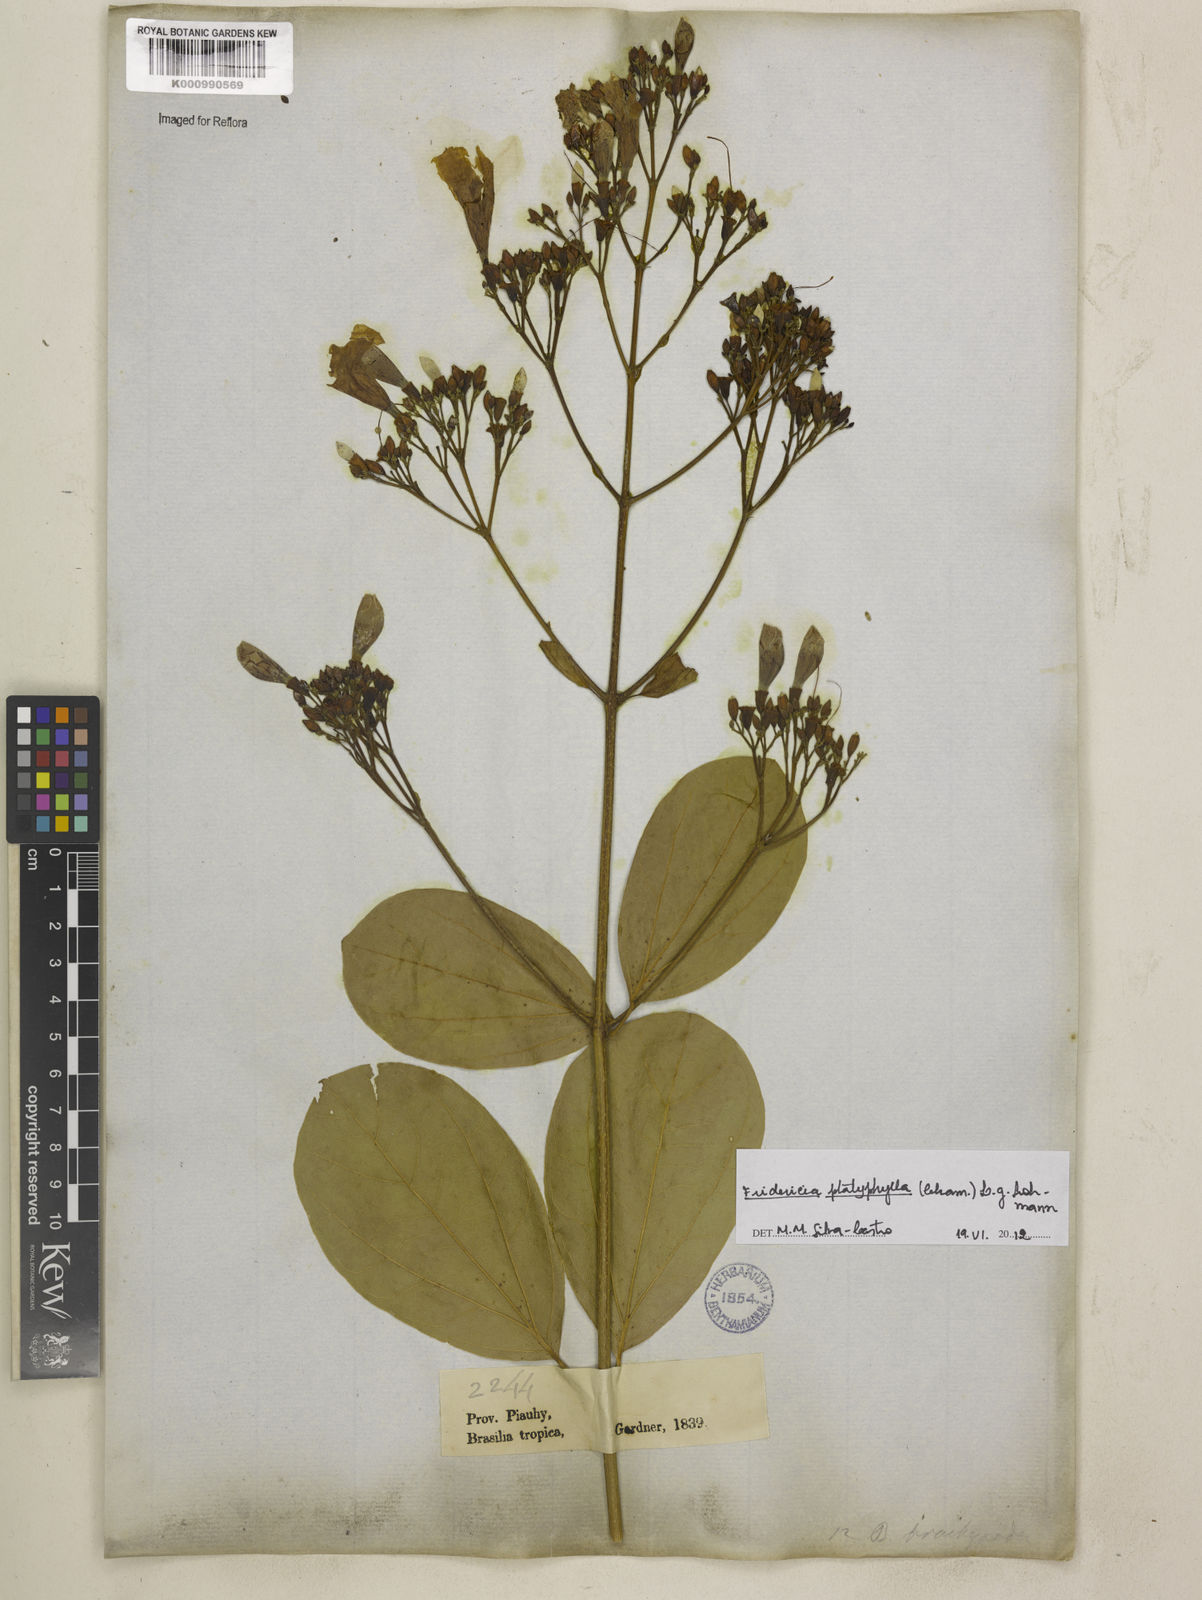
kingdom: Plantae
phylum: Tracheophyta
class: Magnoliopsida
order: Lamiales
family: Bignoniaceae
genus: Fridericia
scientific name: Fridericia platyphylla
